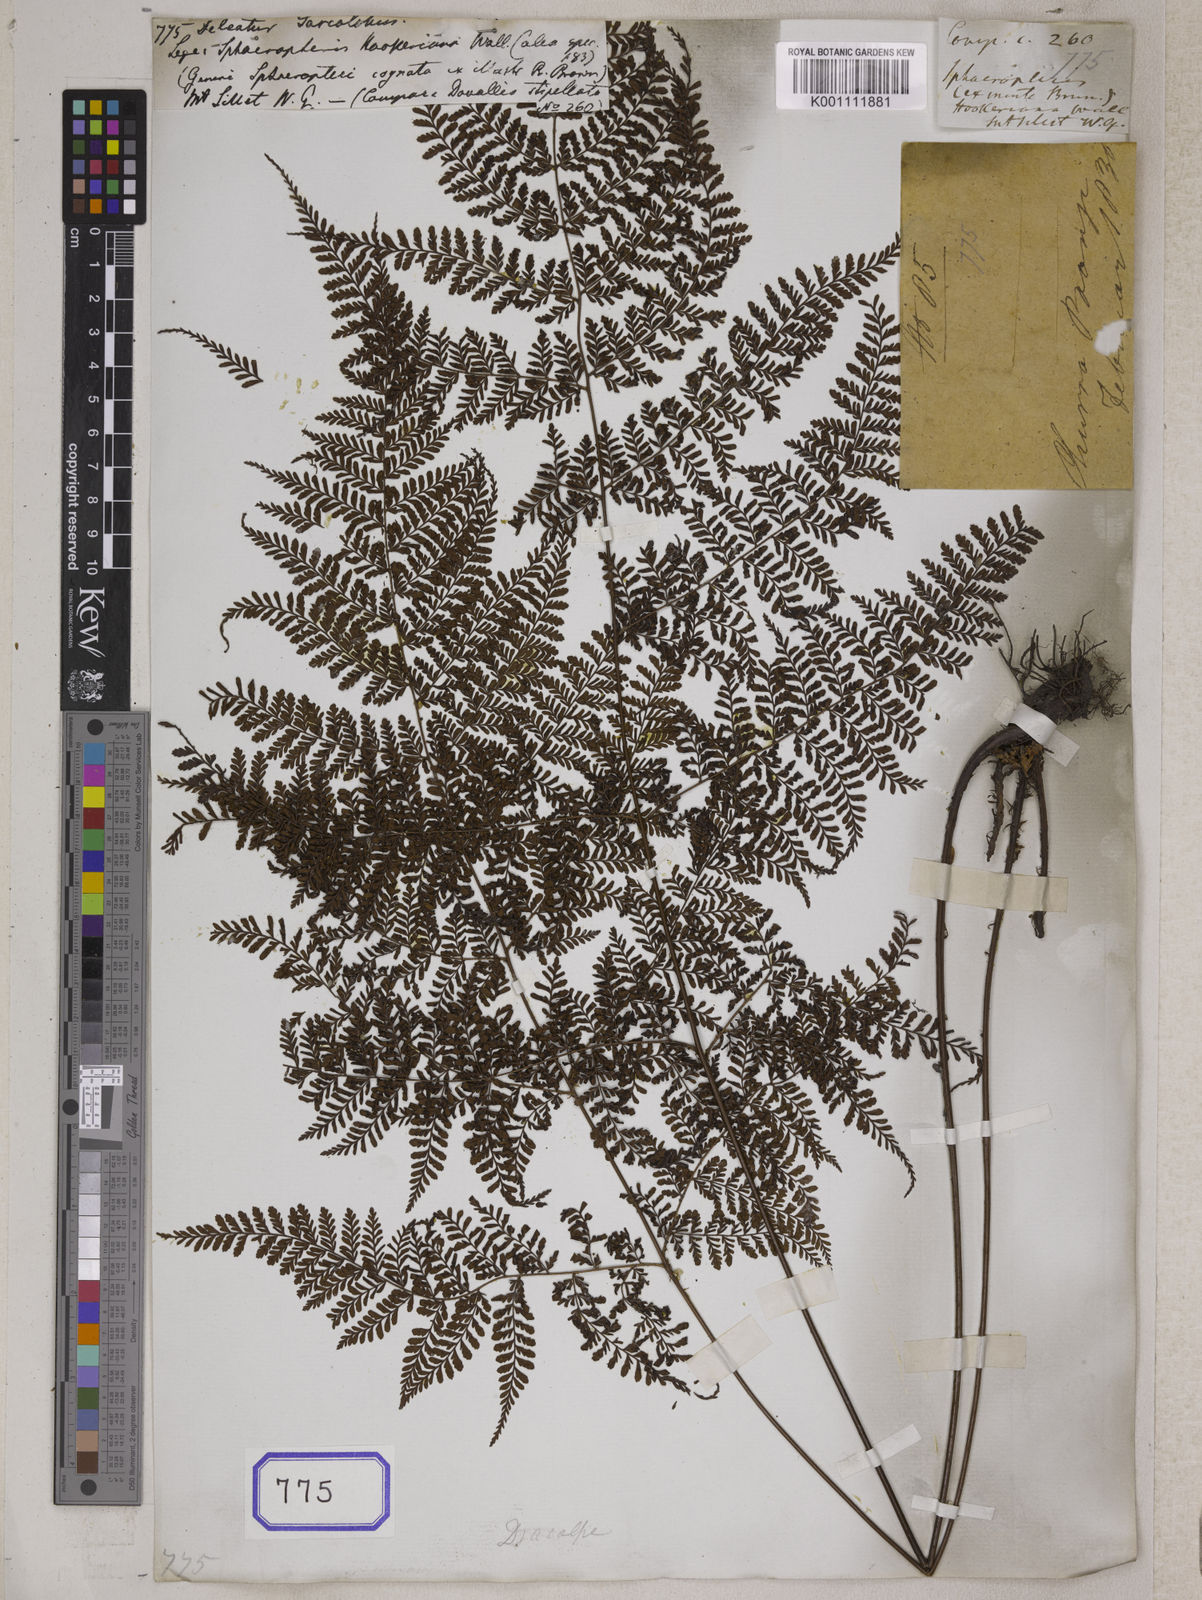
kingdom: Plantae
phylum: Tracheophyta
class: Polypodiopsida
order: Polypodiales
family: Dryopteridaceae
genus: Dryopteris
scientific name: Dryopteris pseudocaenopteris
